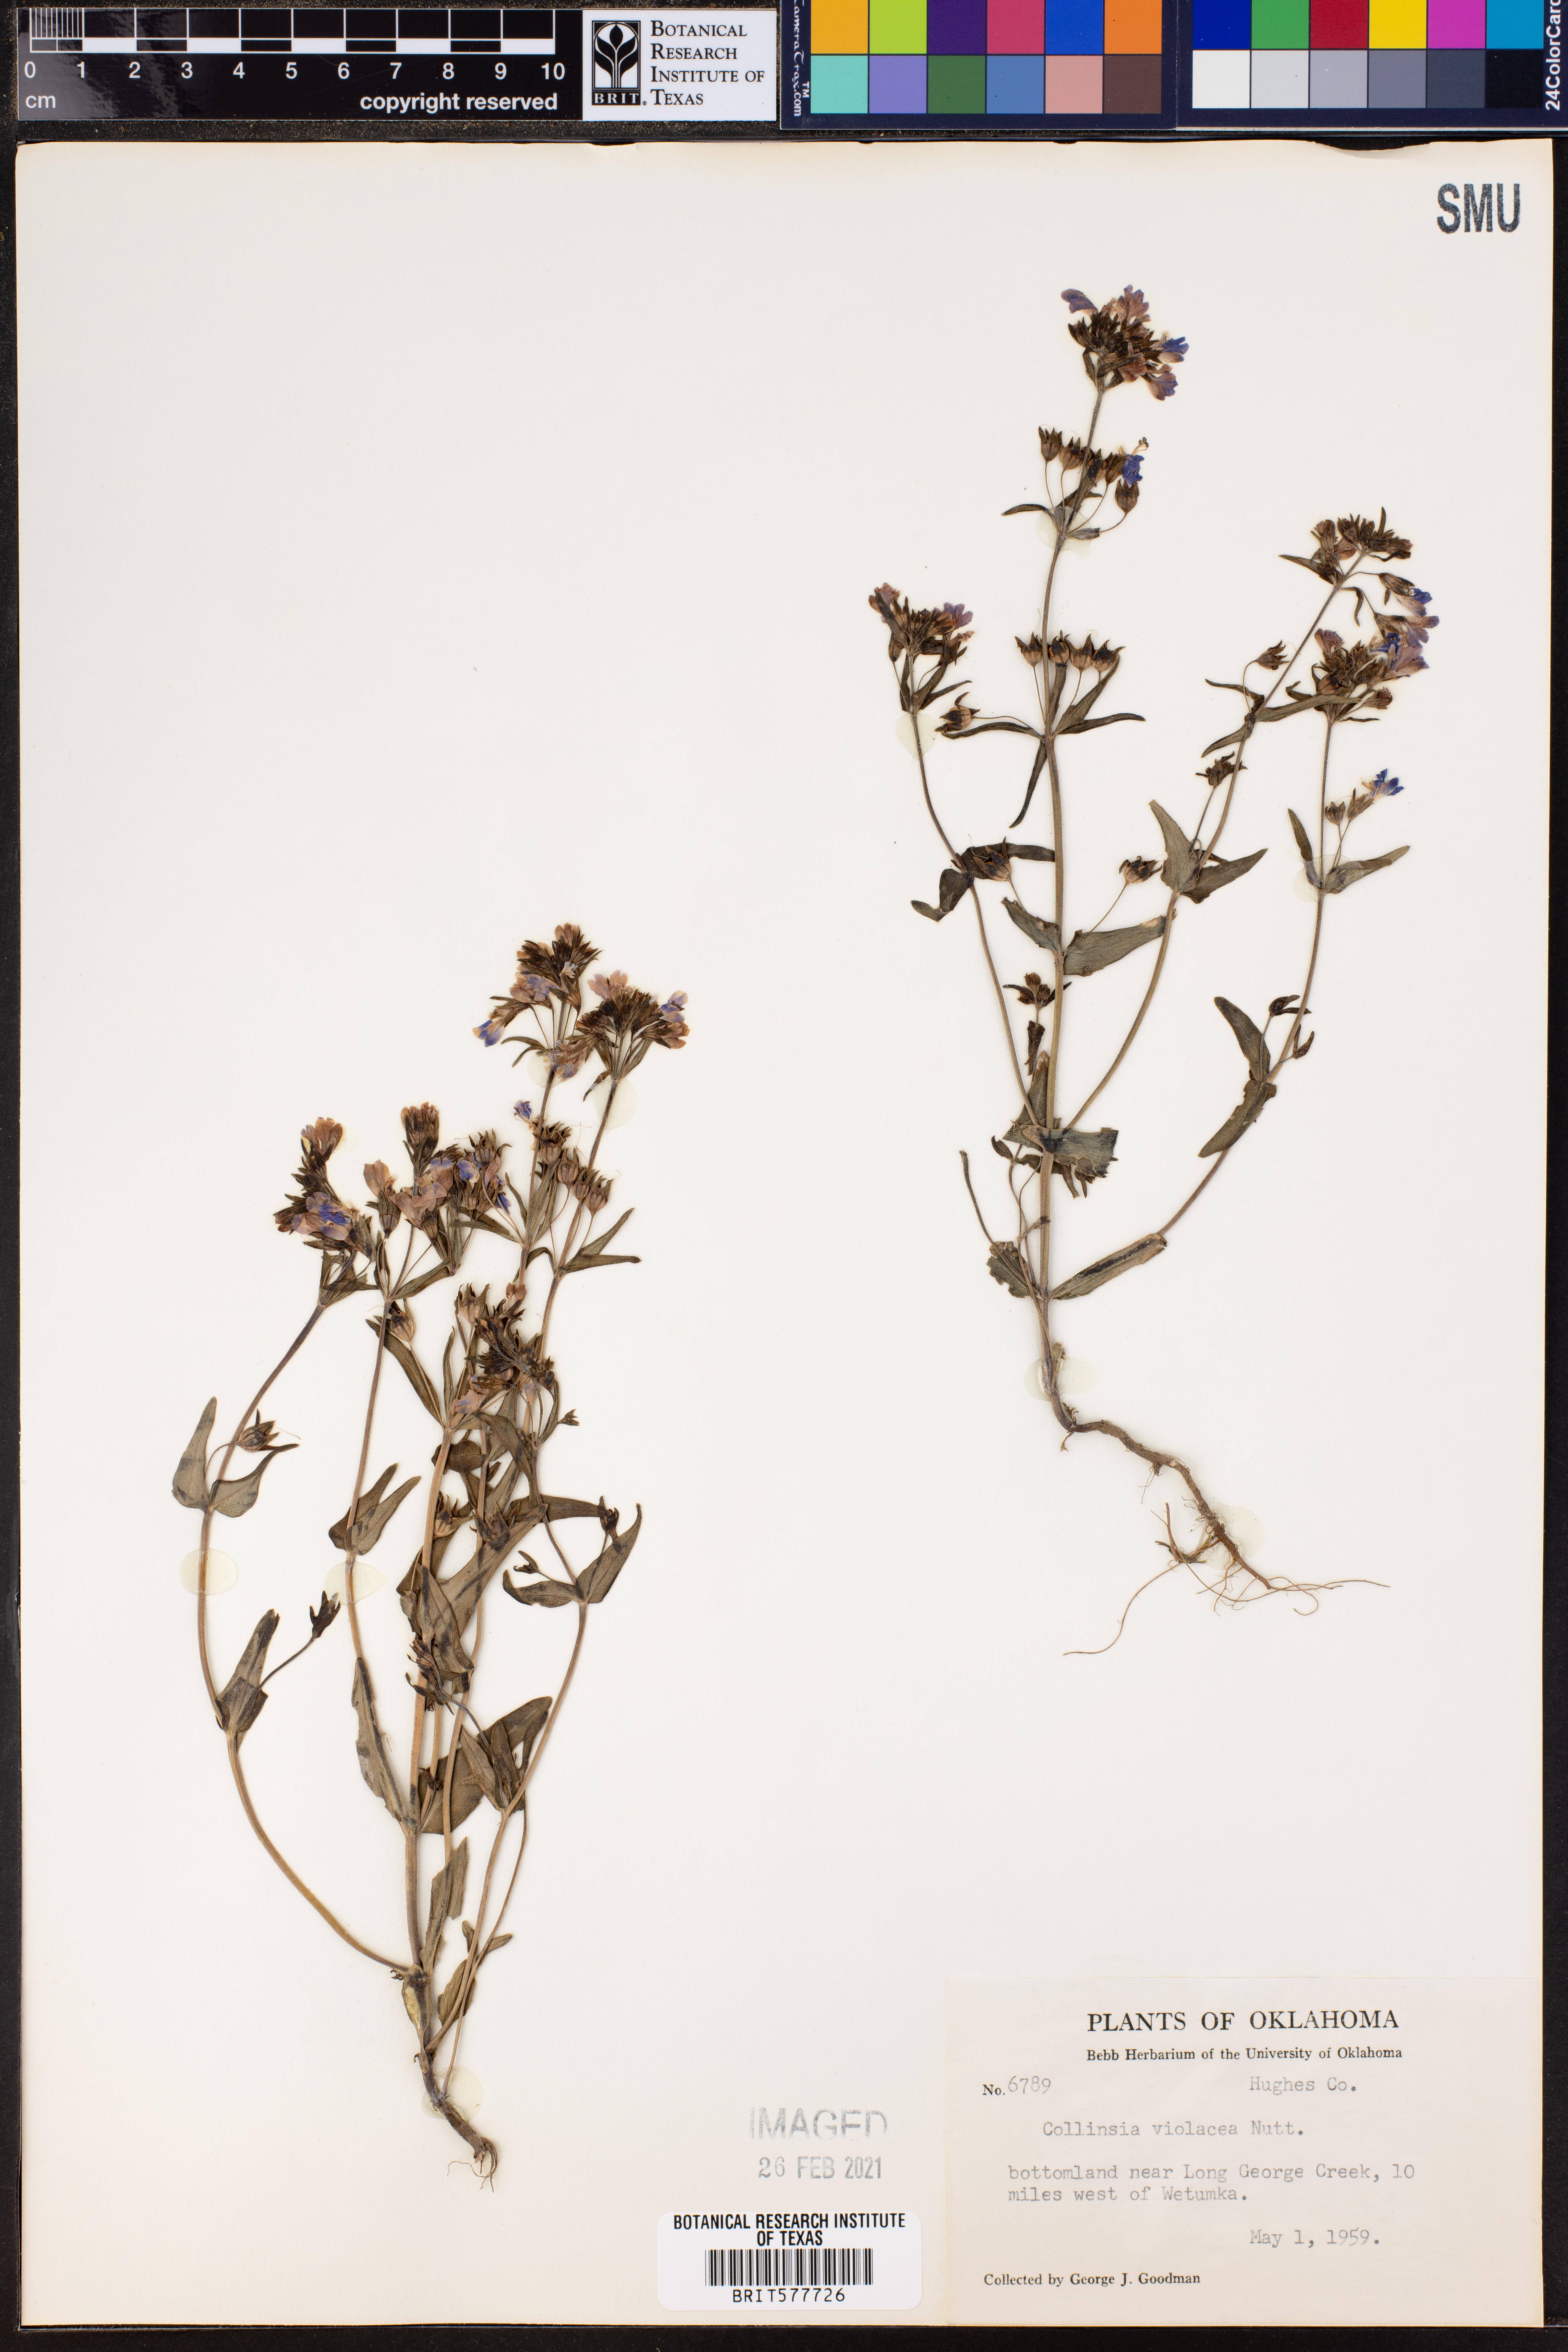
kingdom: Plantae
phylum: Tracheophyta
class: Magnoliopsida
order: Lamiales
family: Plantaginaceae
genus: Collinsia
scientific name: Collinsia violacea
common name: Violet collinsia
